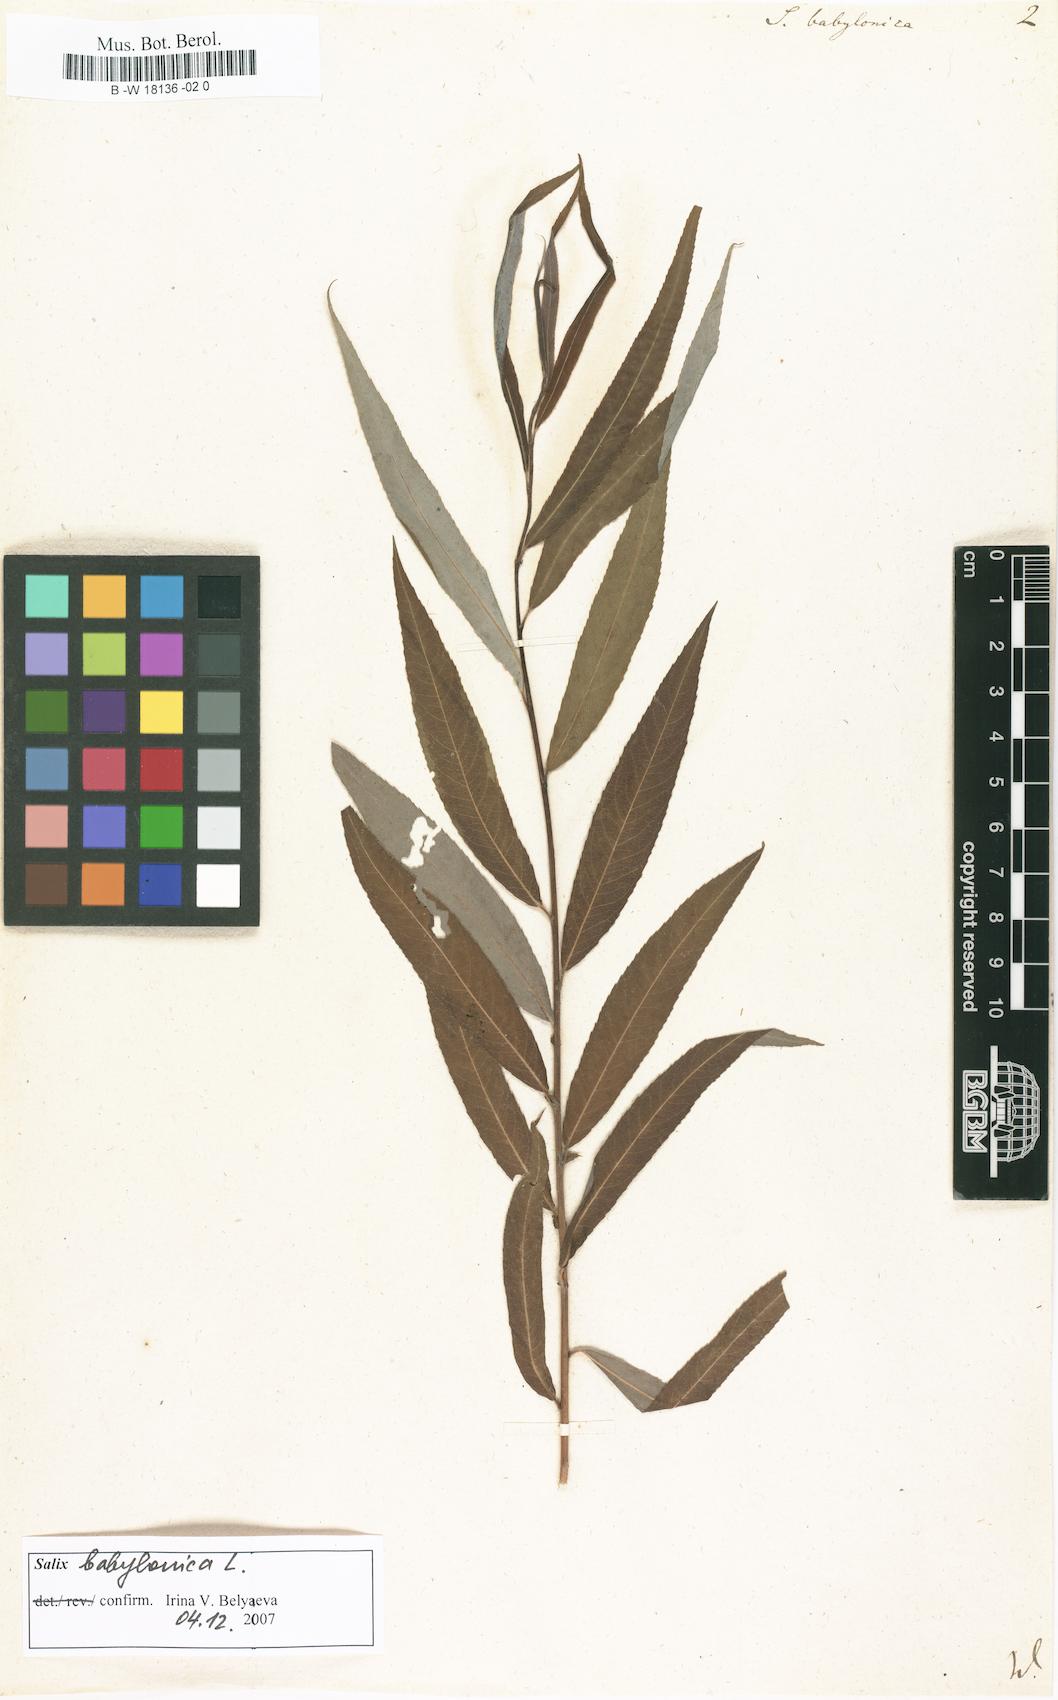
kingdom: Plantae
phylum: Tracheophyta
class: Magnoliopsida
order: Malpighiales
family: Salicaceae
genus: Salix
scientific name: Salix babylonica
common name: Weeping willow
